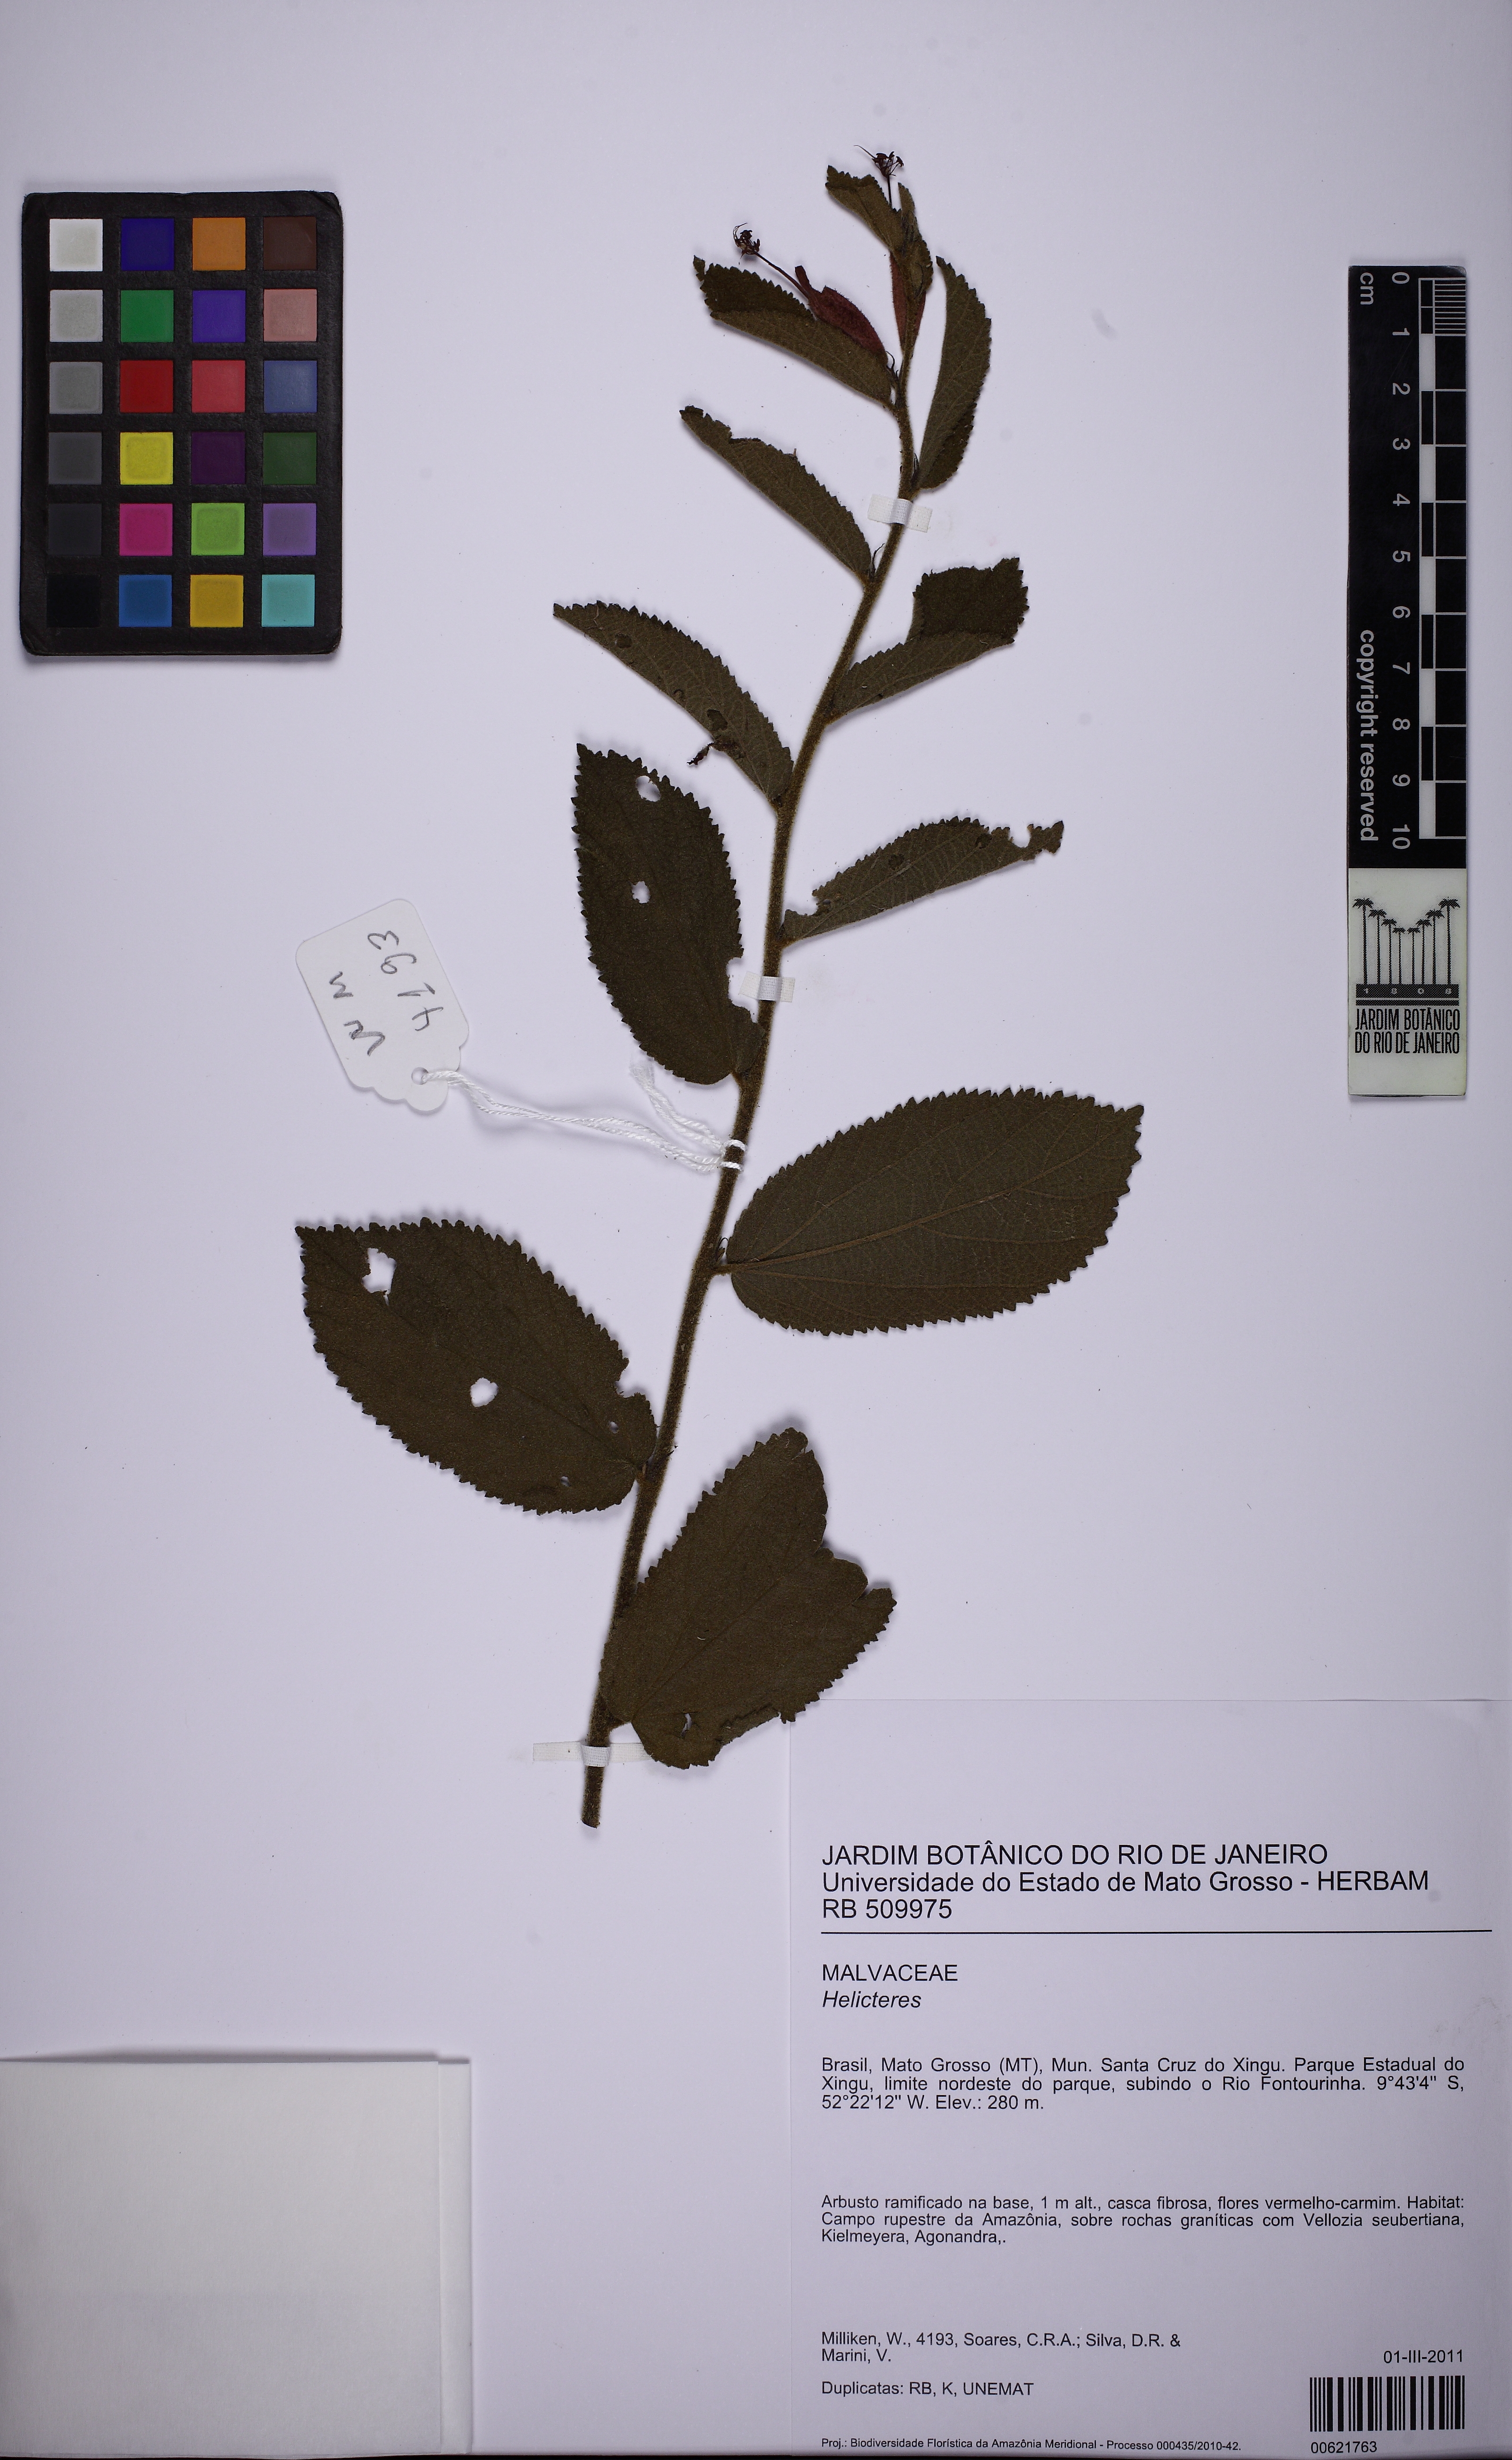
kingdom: Plantae
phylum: Tracheophyta
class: Magnoliopsida
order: Malvales
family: Malvaceae
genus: Helicteres
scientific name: Helicteres
